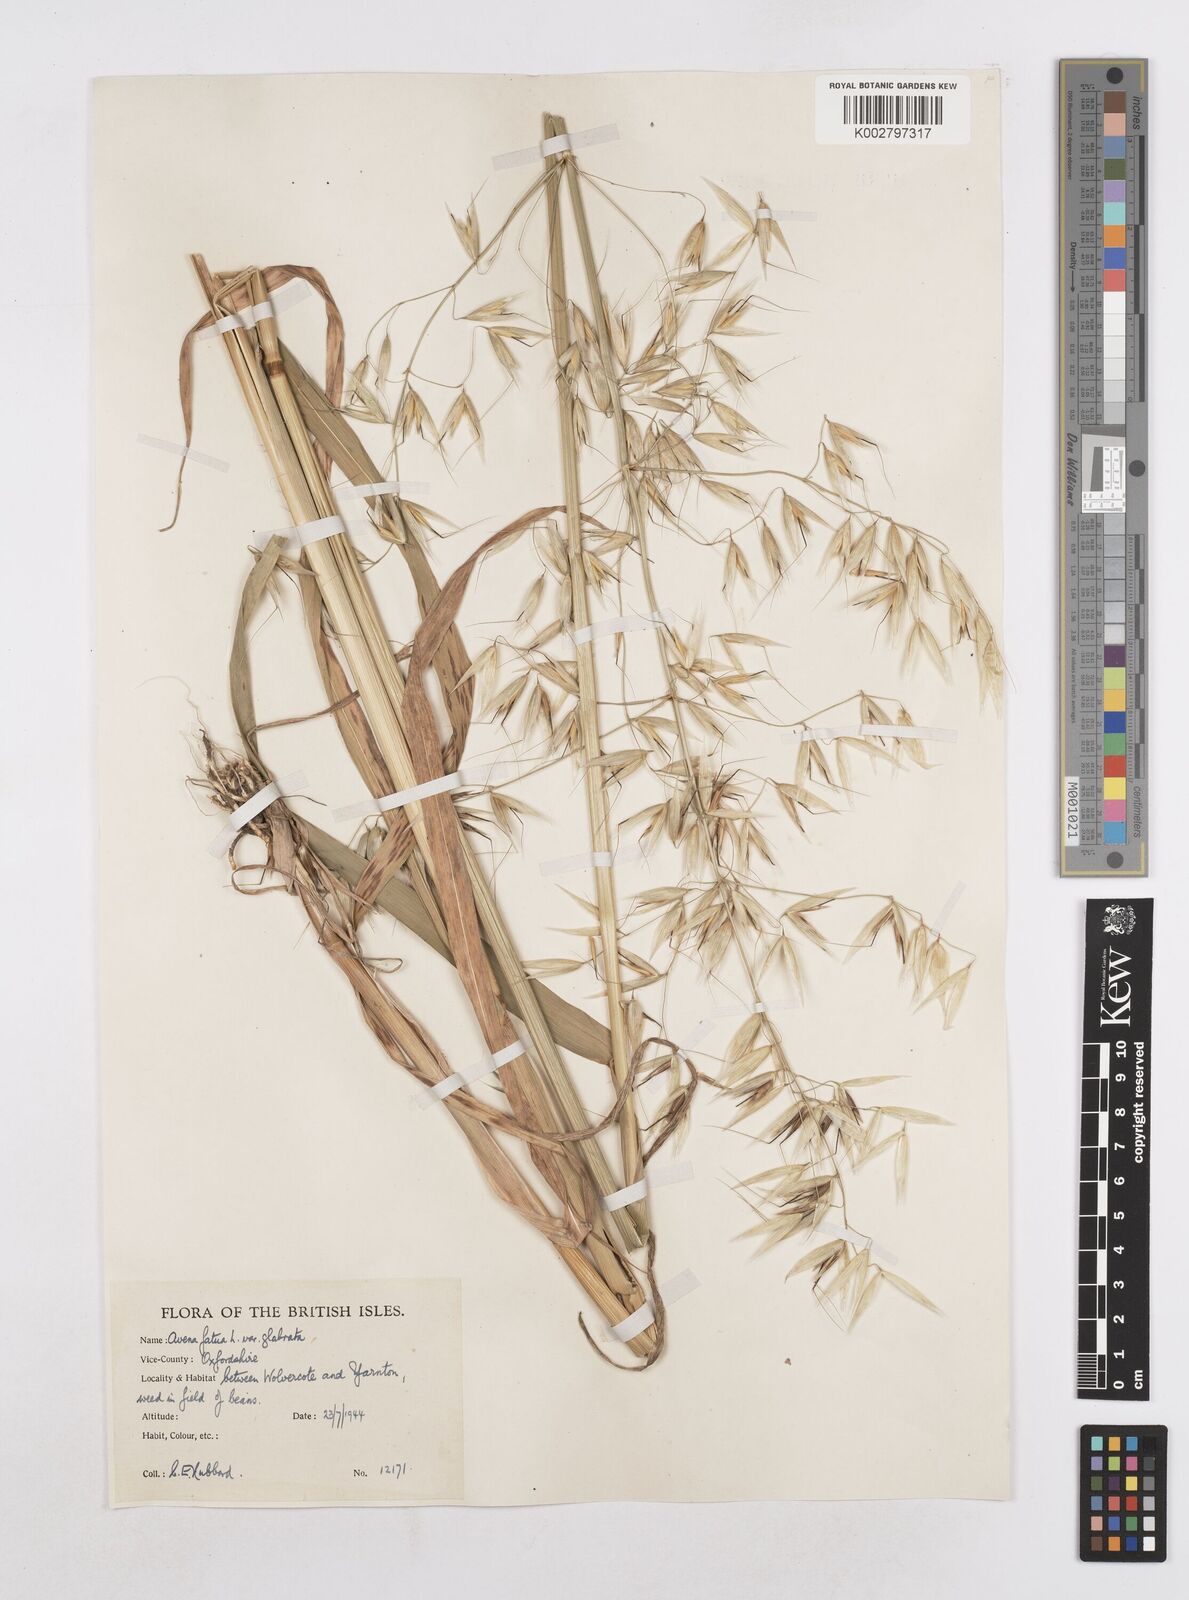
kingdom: Plantae
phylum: Tracheophyta
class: Liliopsida
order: Poales
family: Poaceae
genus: Avena
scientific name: Avena fatua
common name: Wild oat
